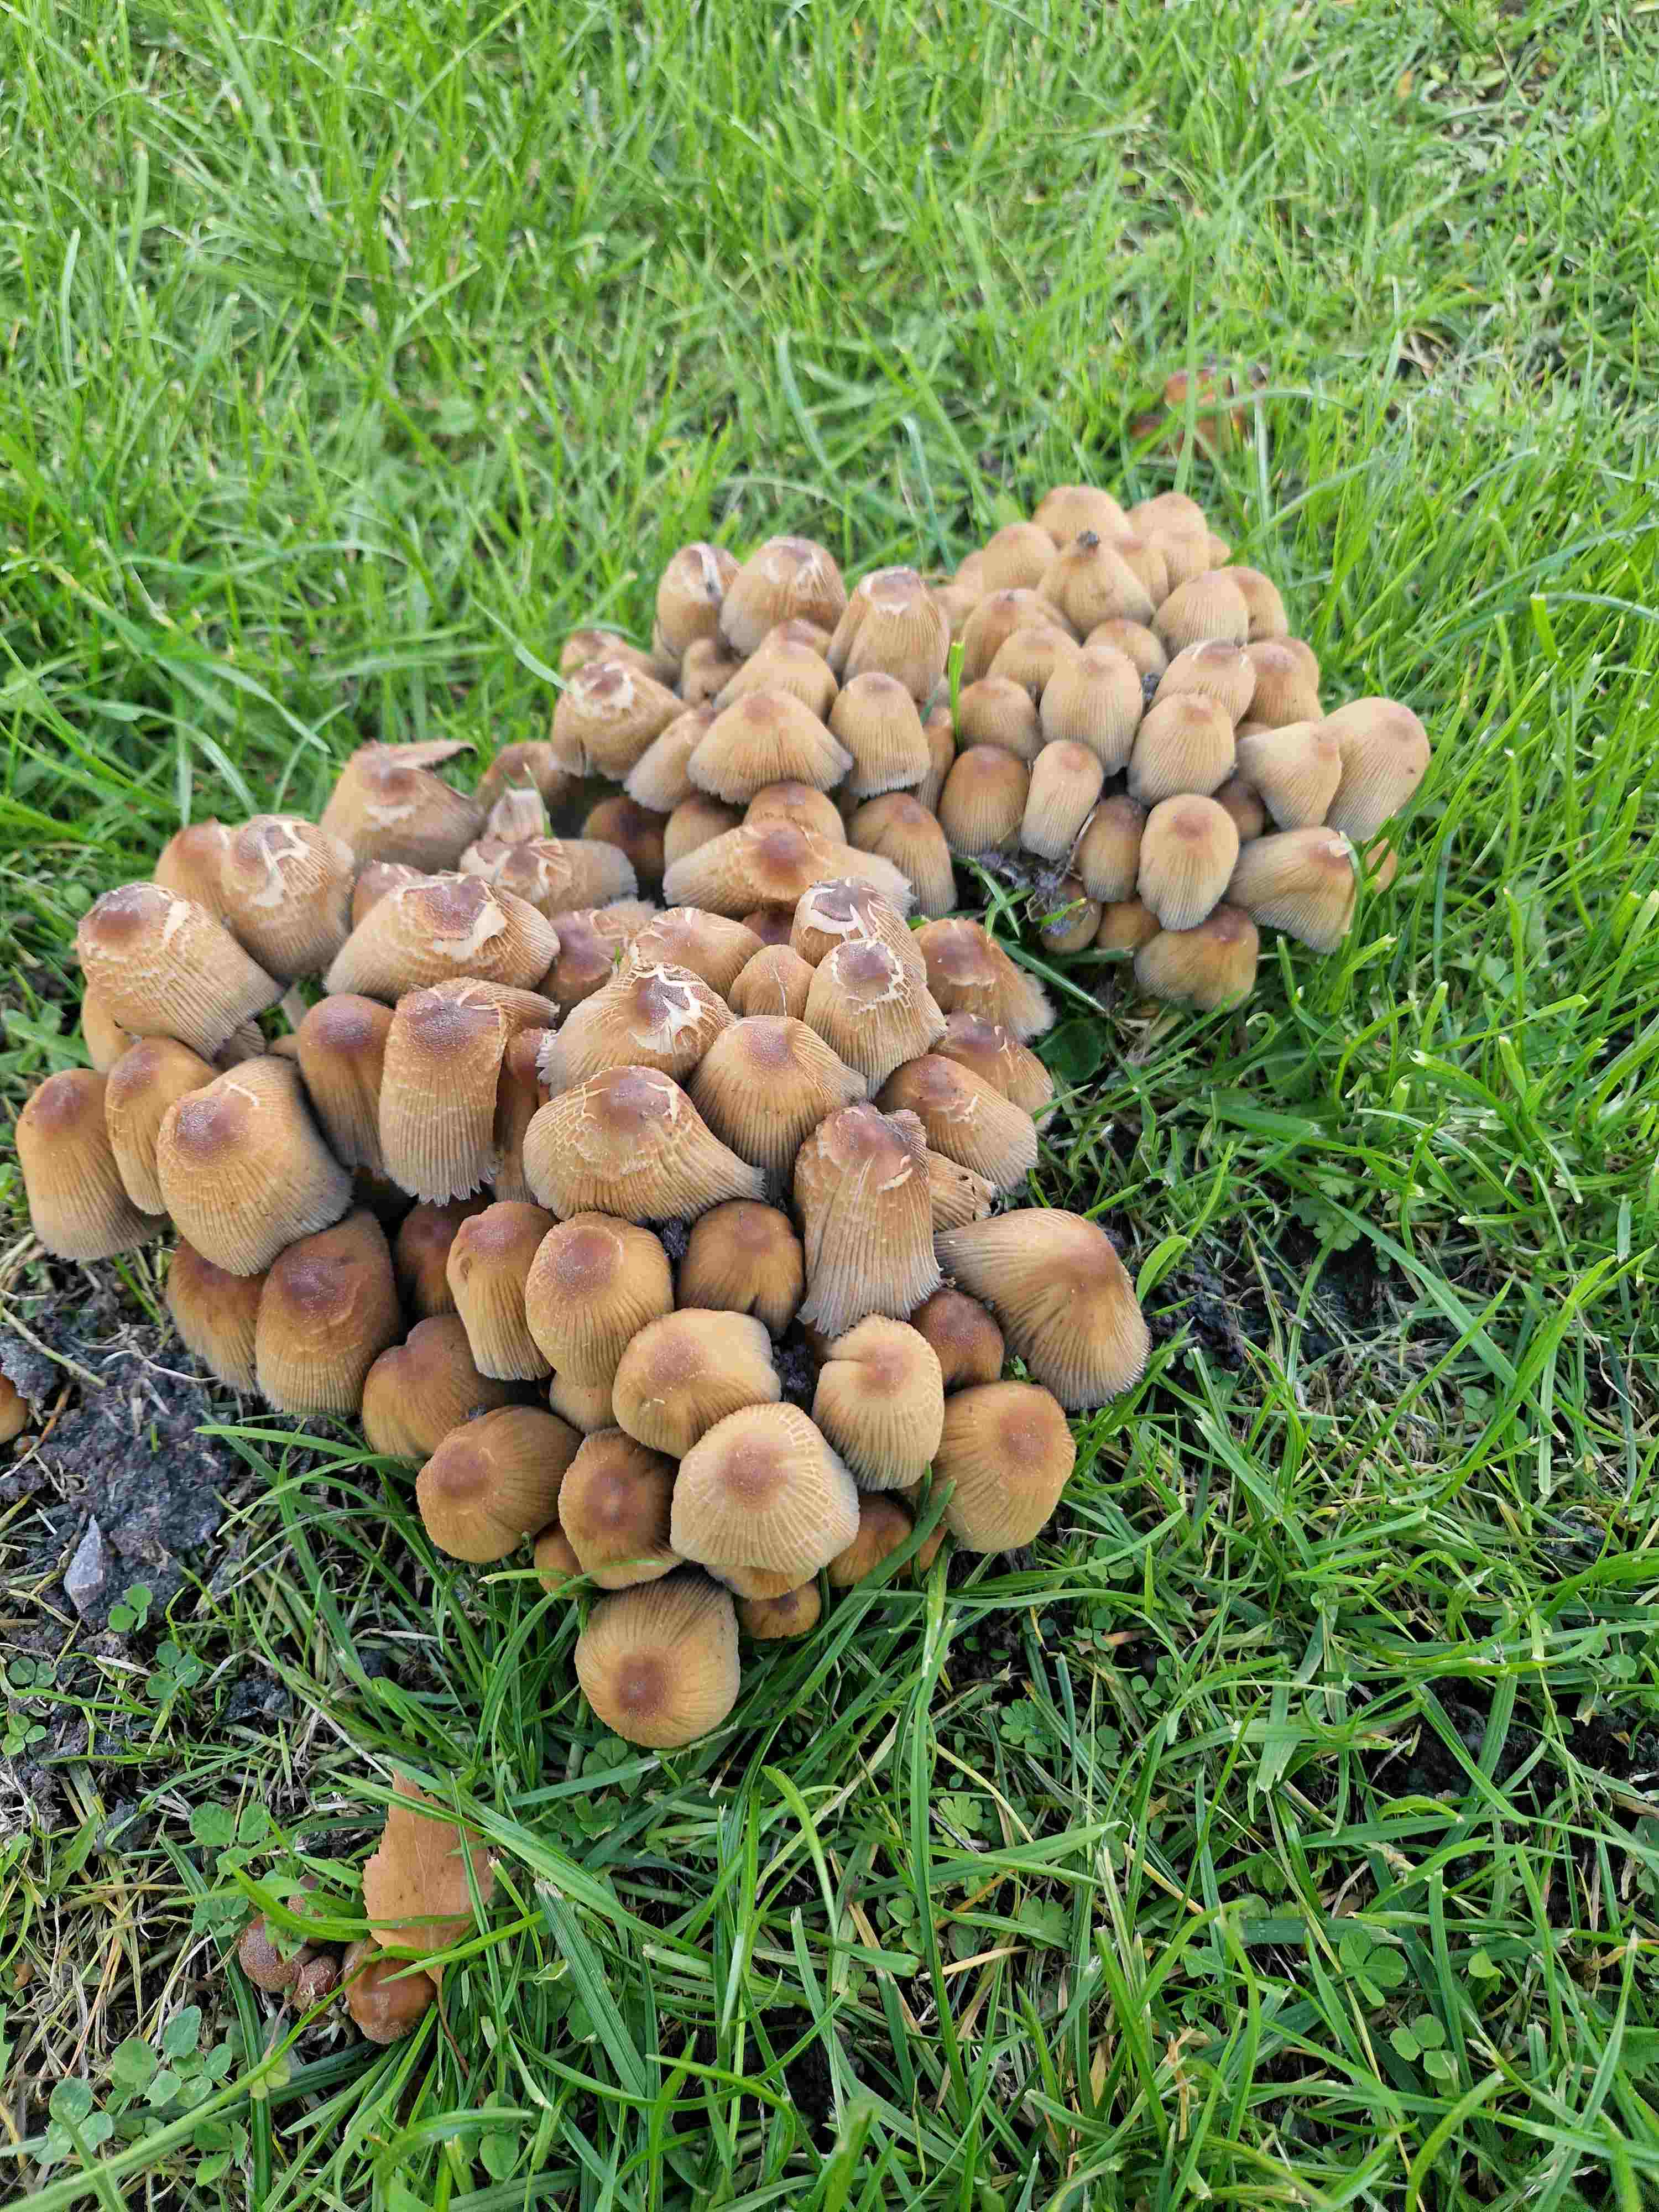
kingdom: Fungi
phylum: Basidiomycota
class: Agaricomycetes
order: Agaricales
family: Psathyrellaceae
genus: Coprinellus
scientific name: Coprinellus micaceus
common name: glimmer-blækhat
